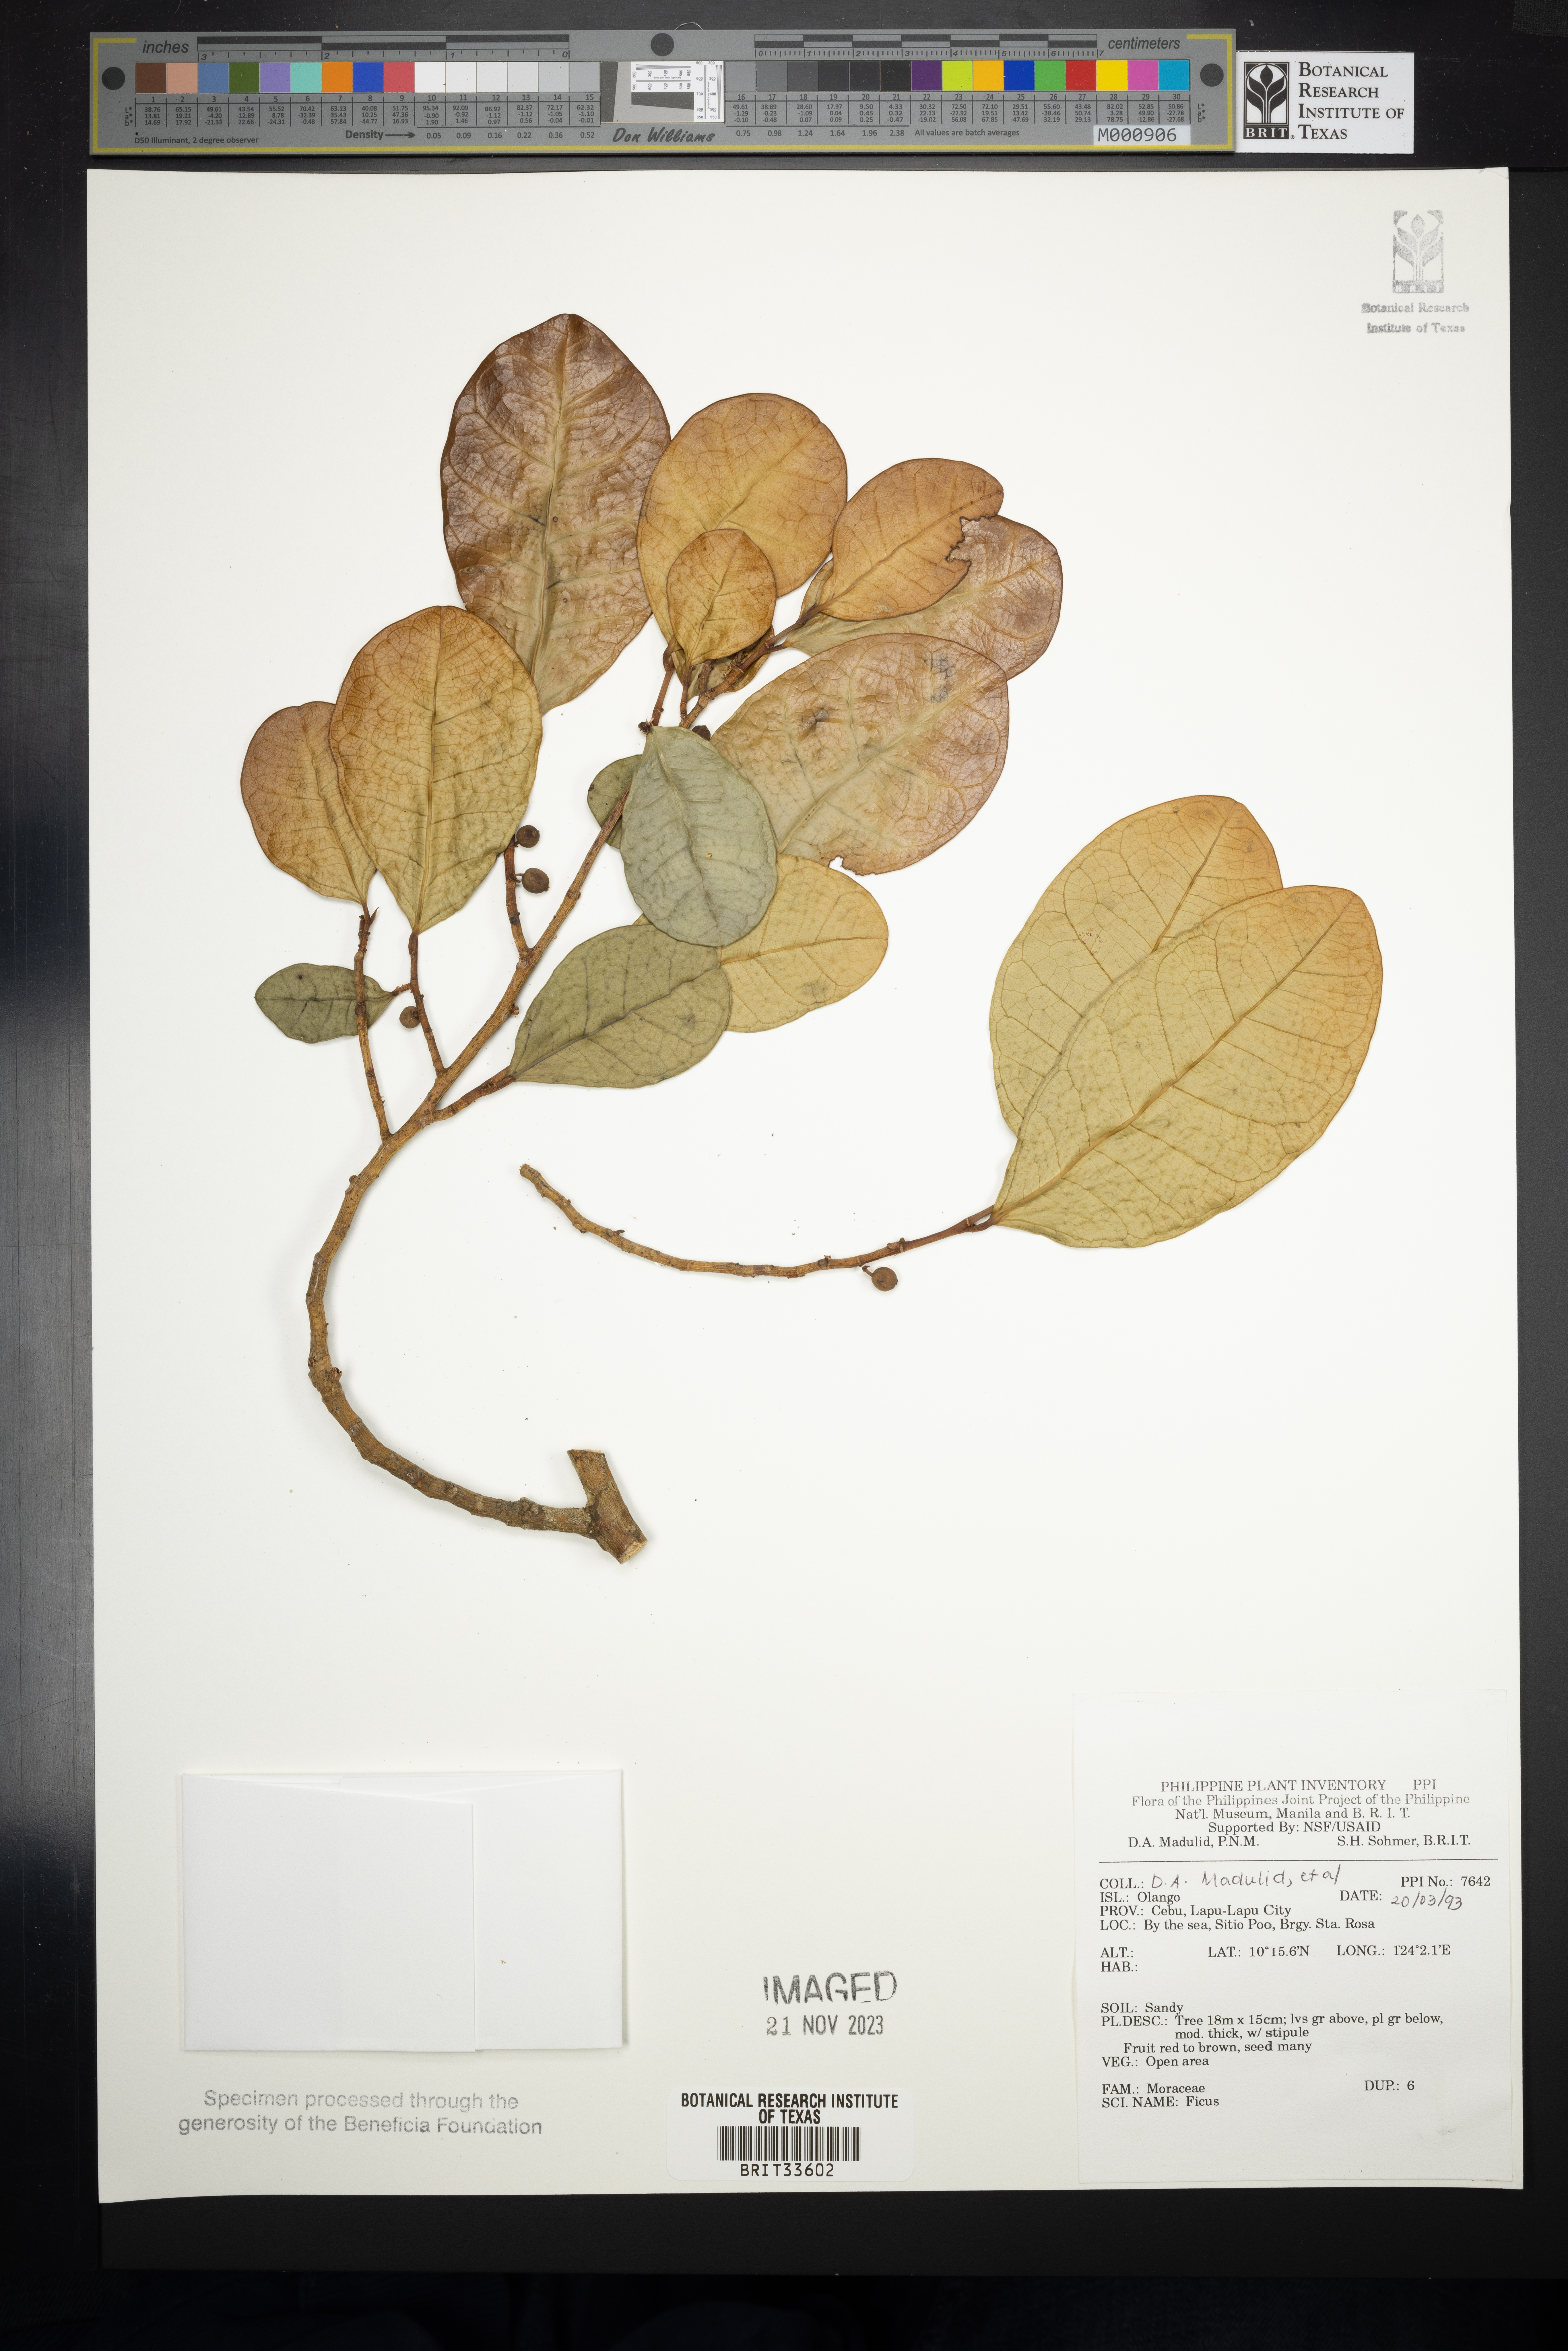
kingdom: Plantae
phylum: Tracheophyta
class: Magnoliopsida
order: Rosales
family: Moraceae
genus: Ficus
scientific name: Ficus
